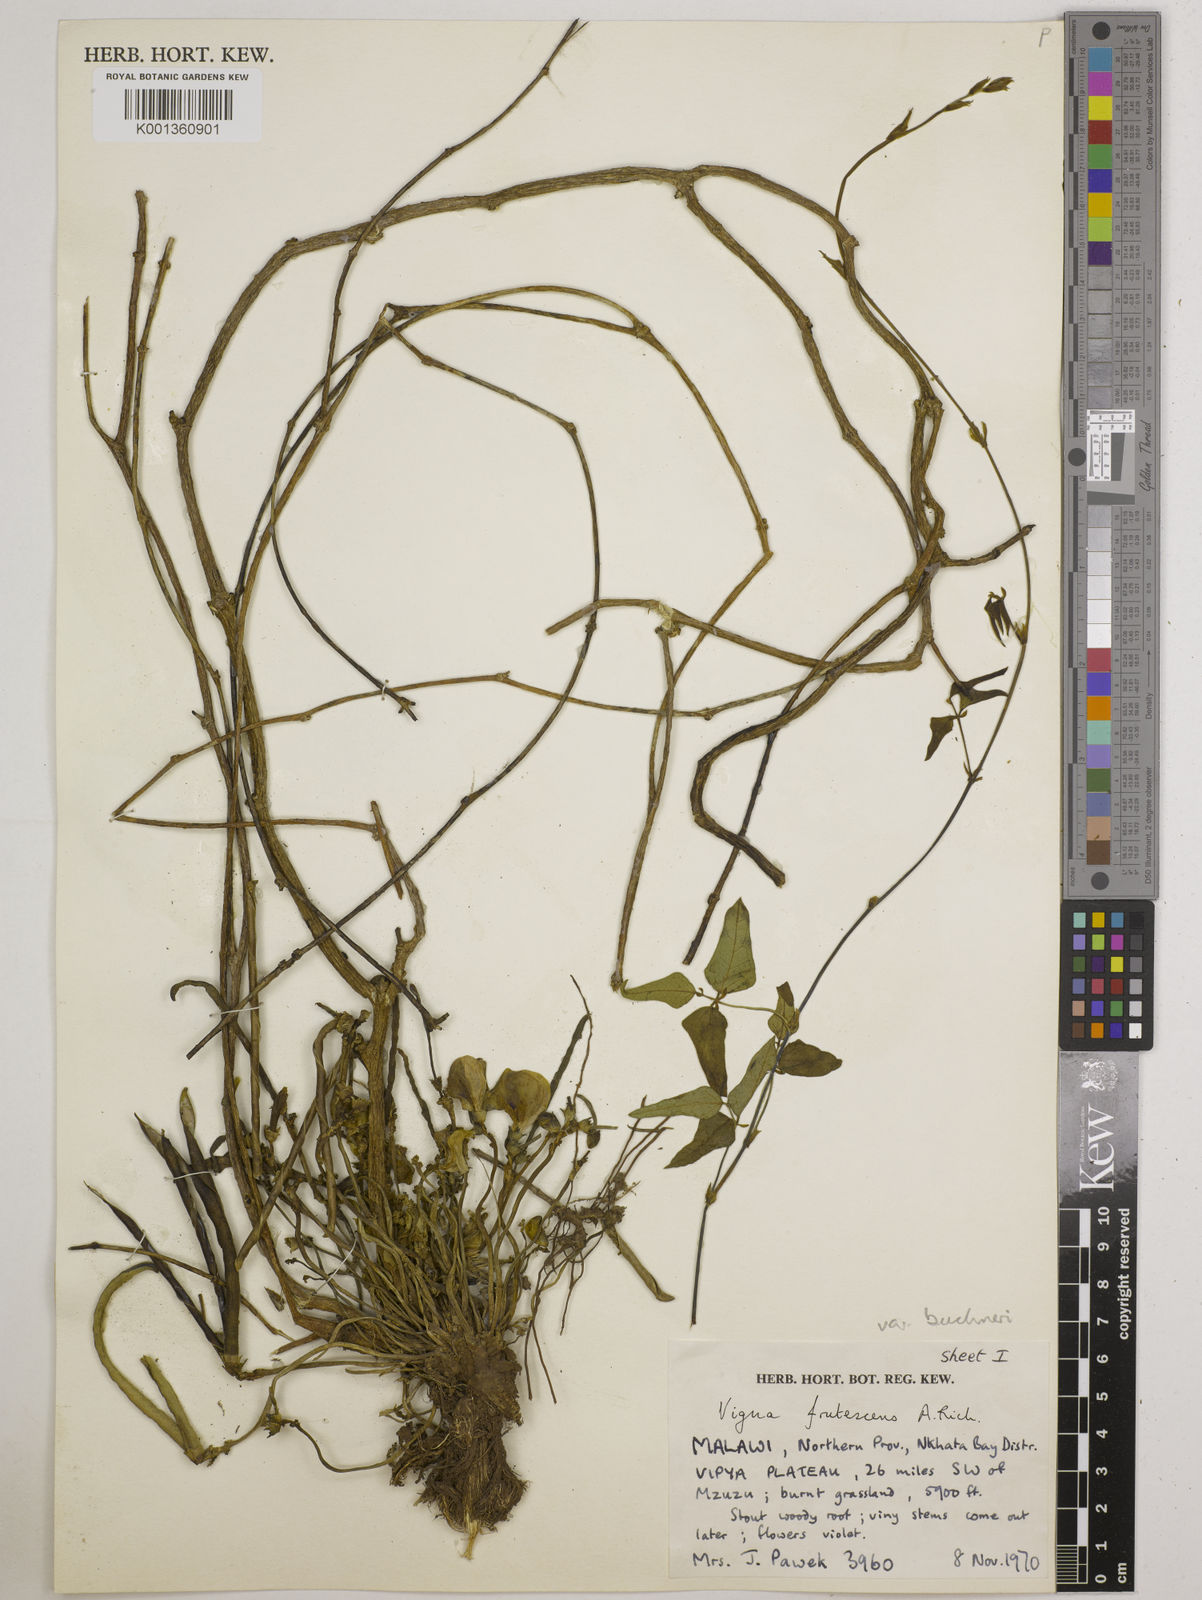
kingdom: Plantae
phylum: Tracheophyta
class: Magnoliopsida
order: Fabales
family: Fabaceae
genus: Vigna
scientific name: Vigna
